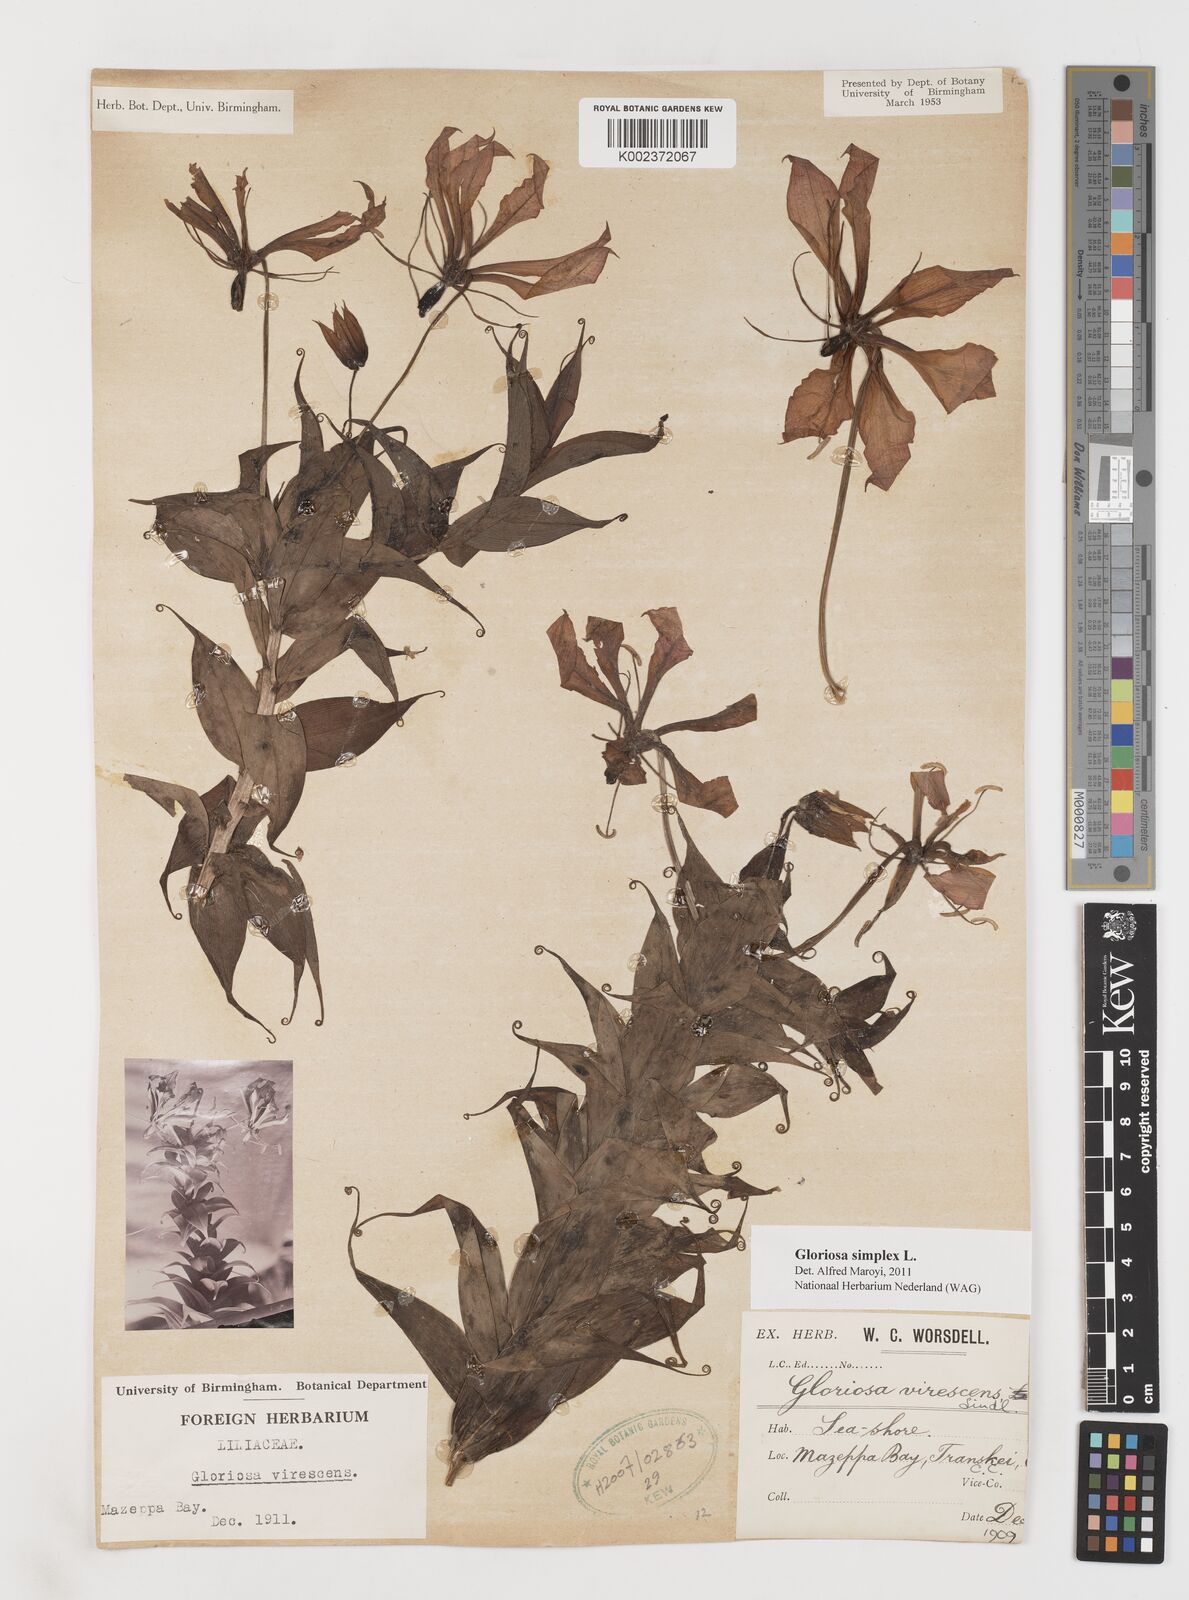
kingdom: Plantae
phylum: Tracheophyta
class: Liliopsida
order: Liliales
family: Colchicaceae
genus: Gloriosa
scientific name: Gloriosa simplex
